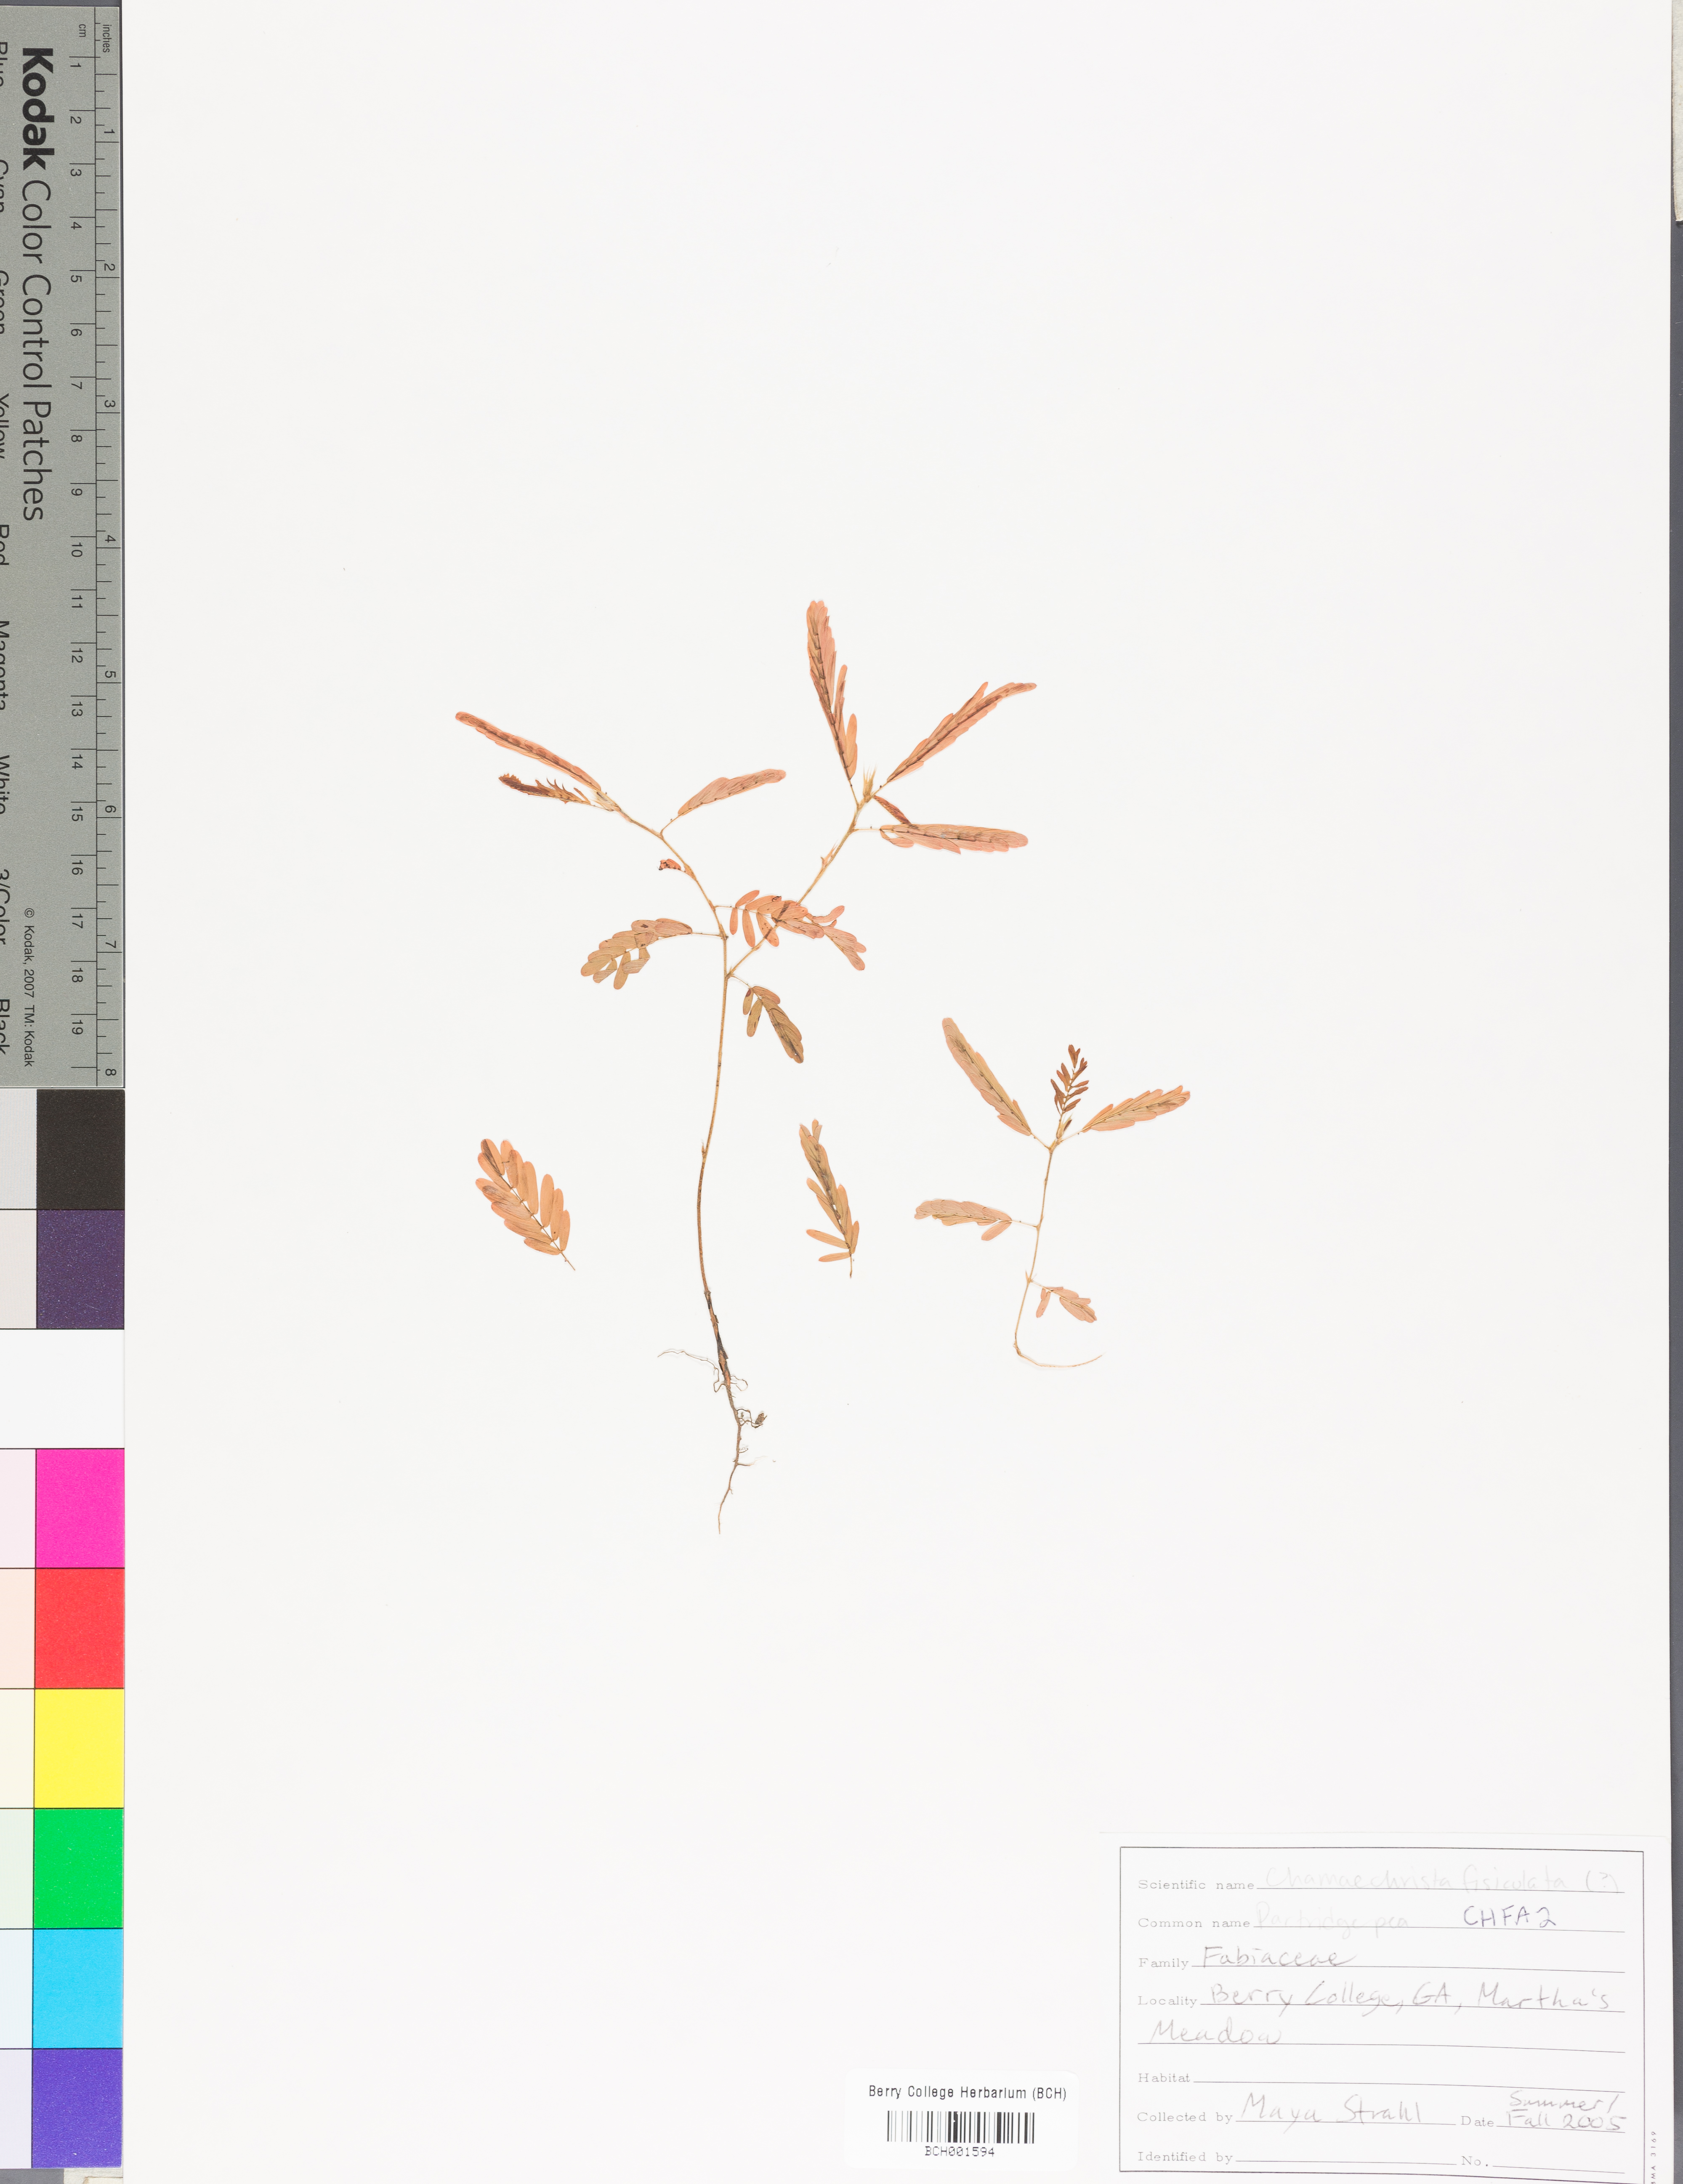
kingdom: Plantae
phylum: Tracheophyta
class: Magnoliopsida
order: Fabales
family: Fabaceae
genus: Chamaecrista
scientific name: Chamaecrista fasciculata
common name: Golden cassia
